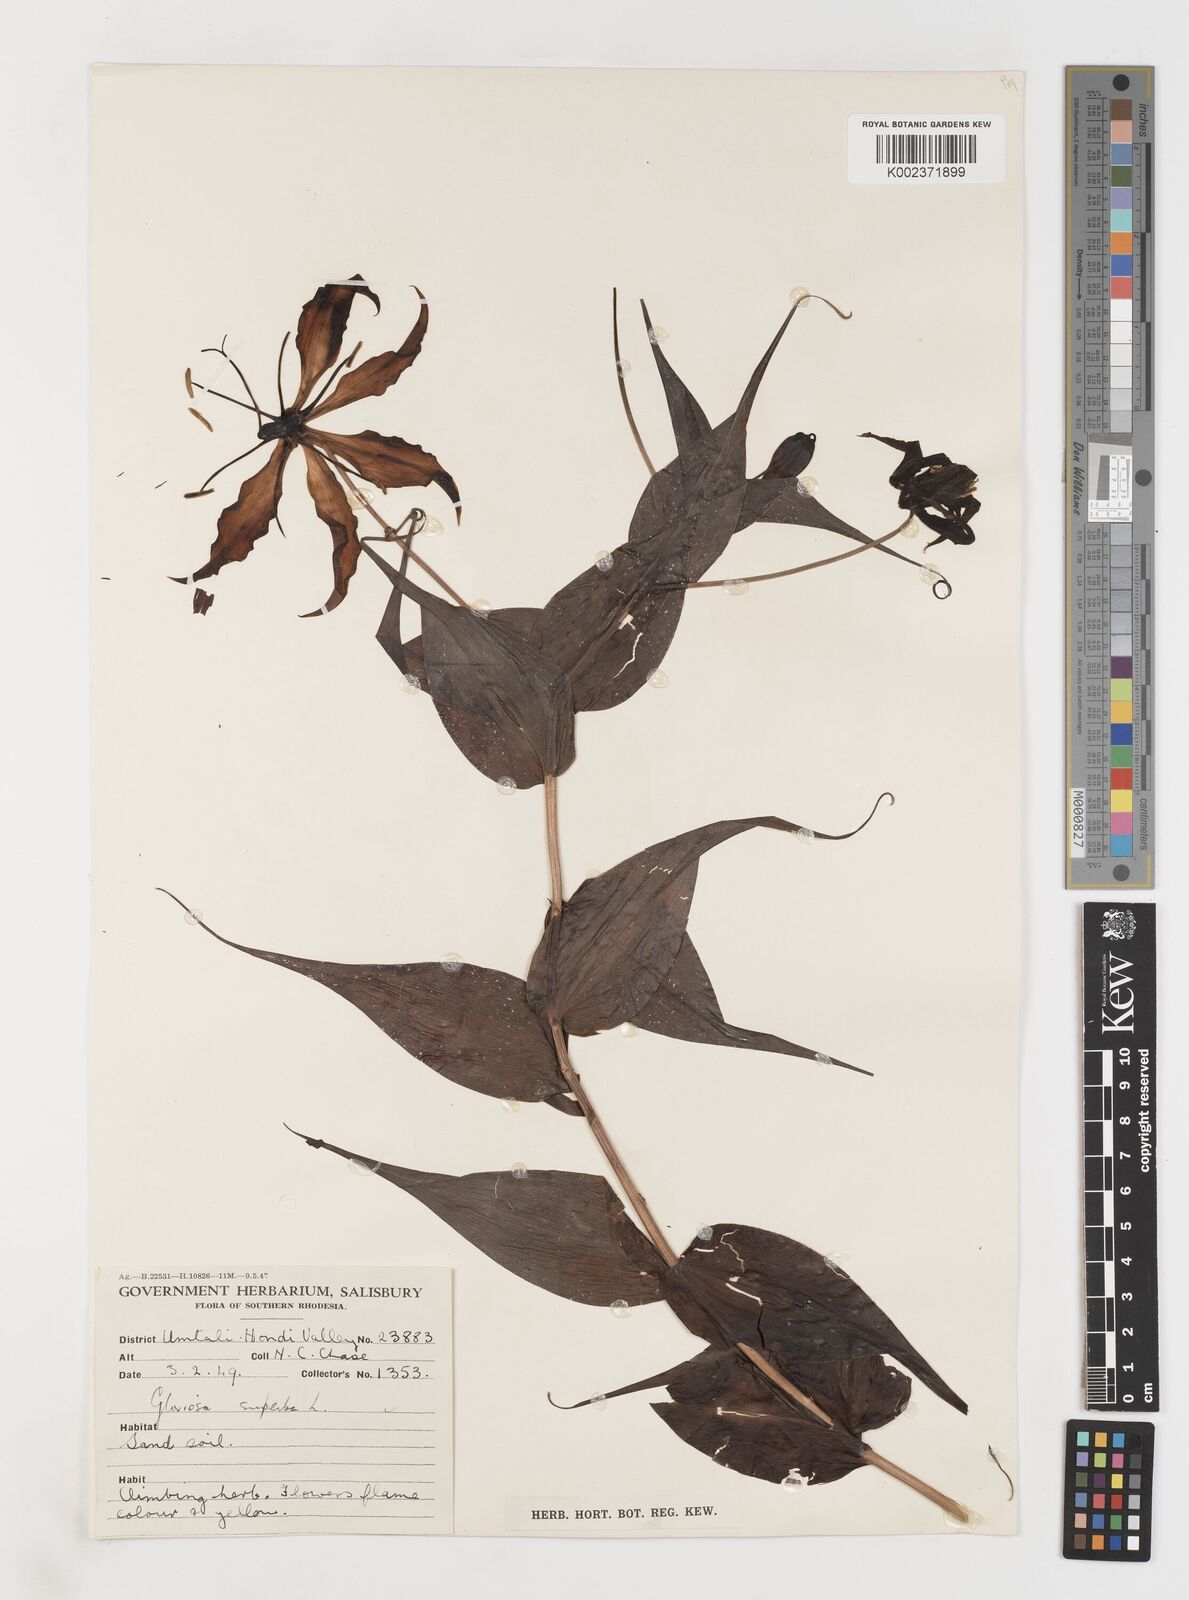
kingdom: Plantae
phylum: Tracheophyta
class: Liliopsida
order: Liliales
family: Colchicaceae
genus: Gloriosa
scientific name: Gloriosa simplex
